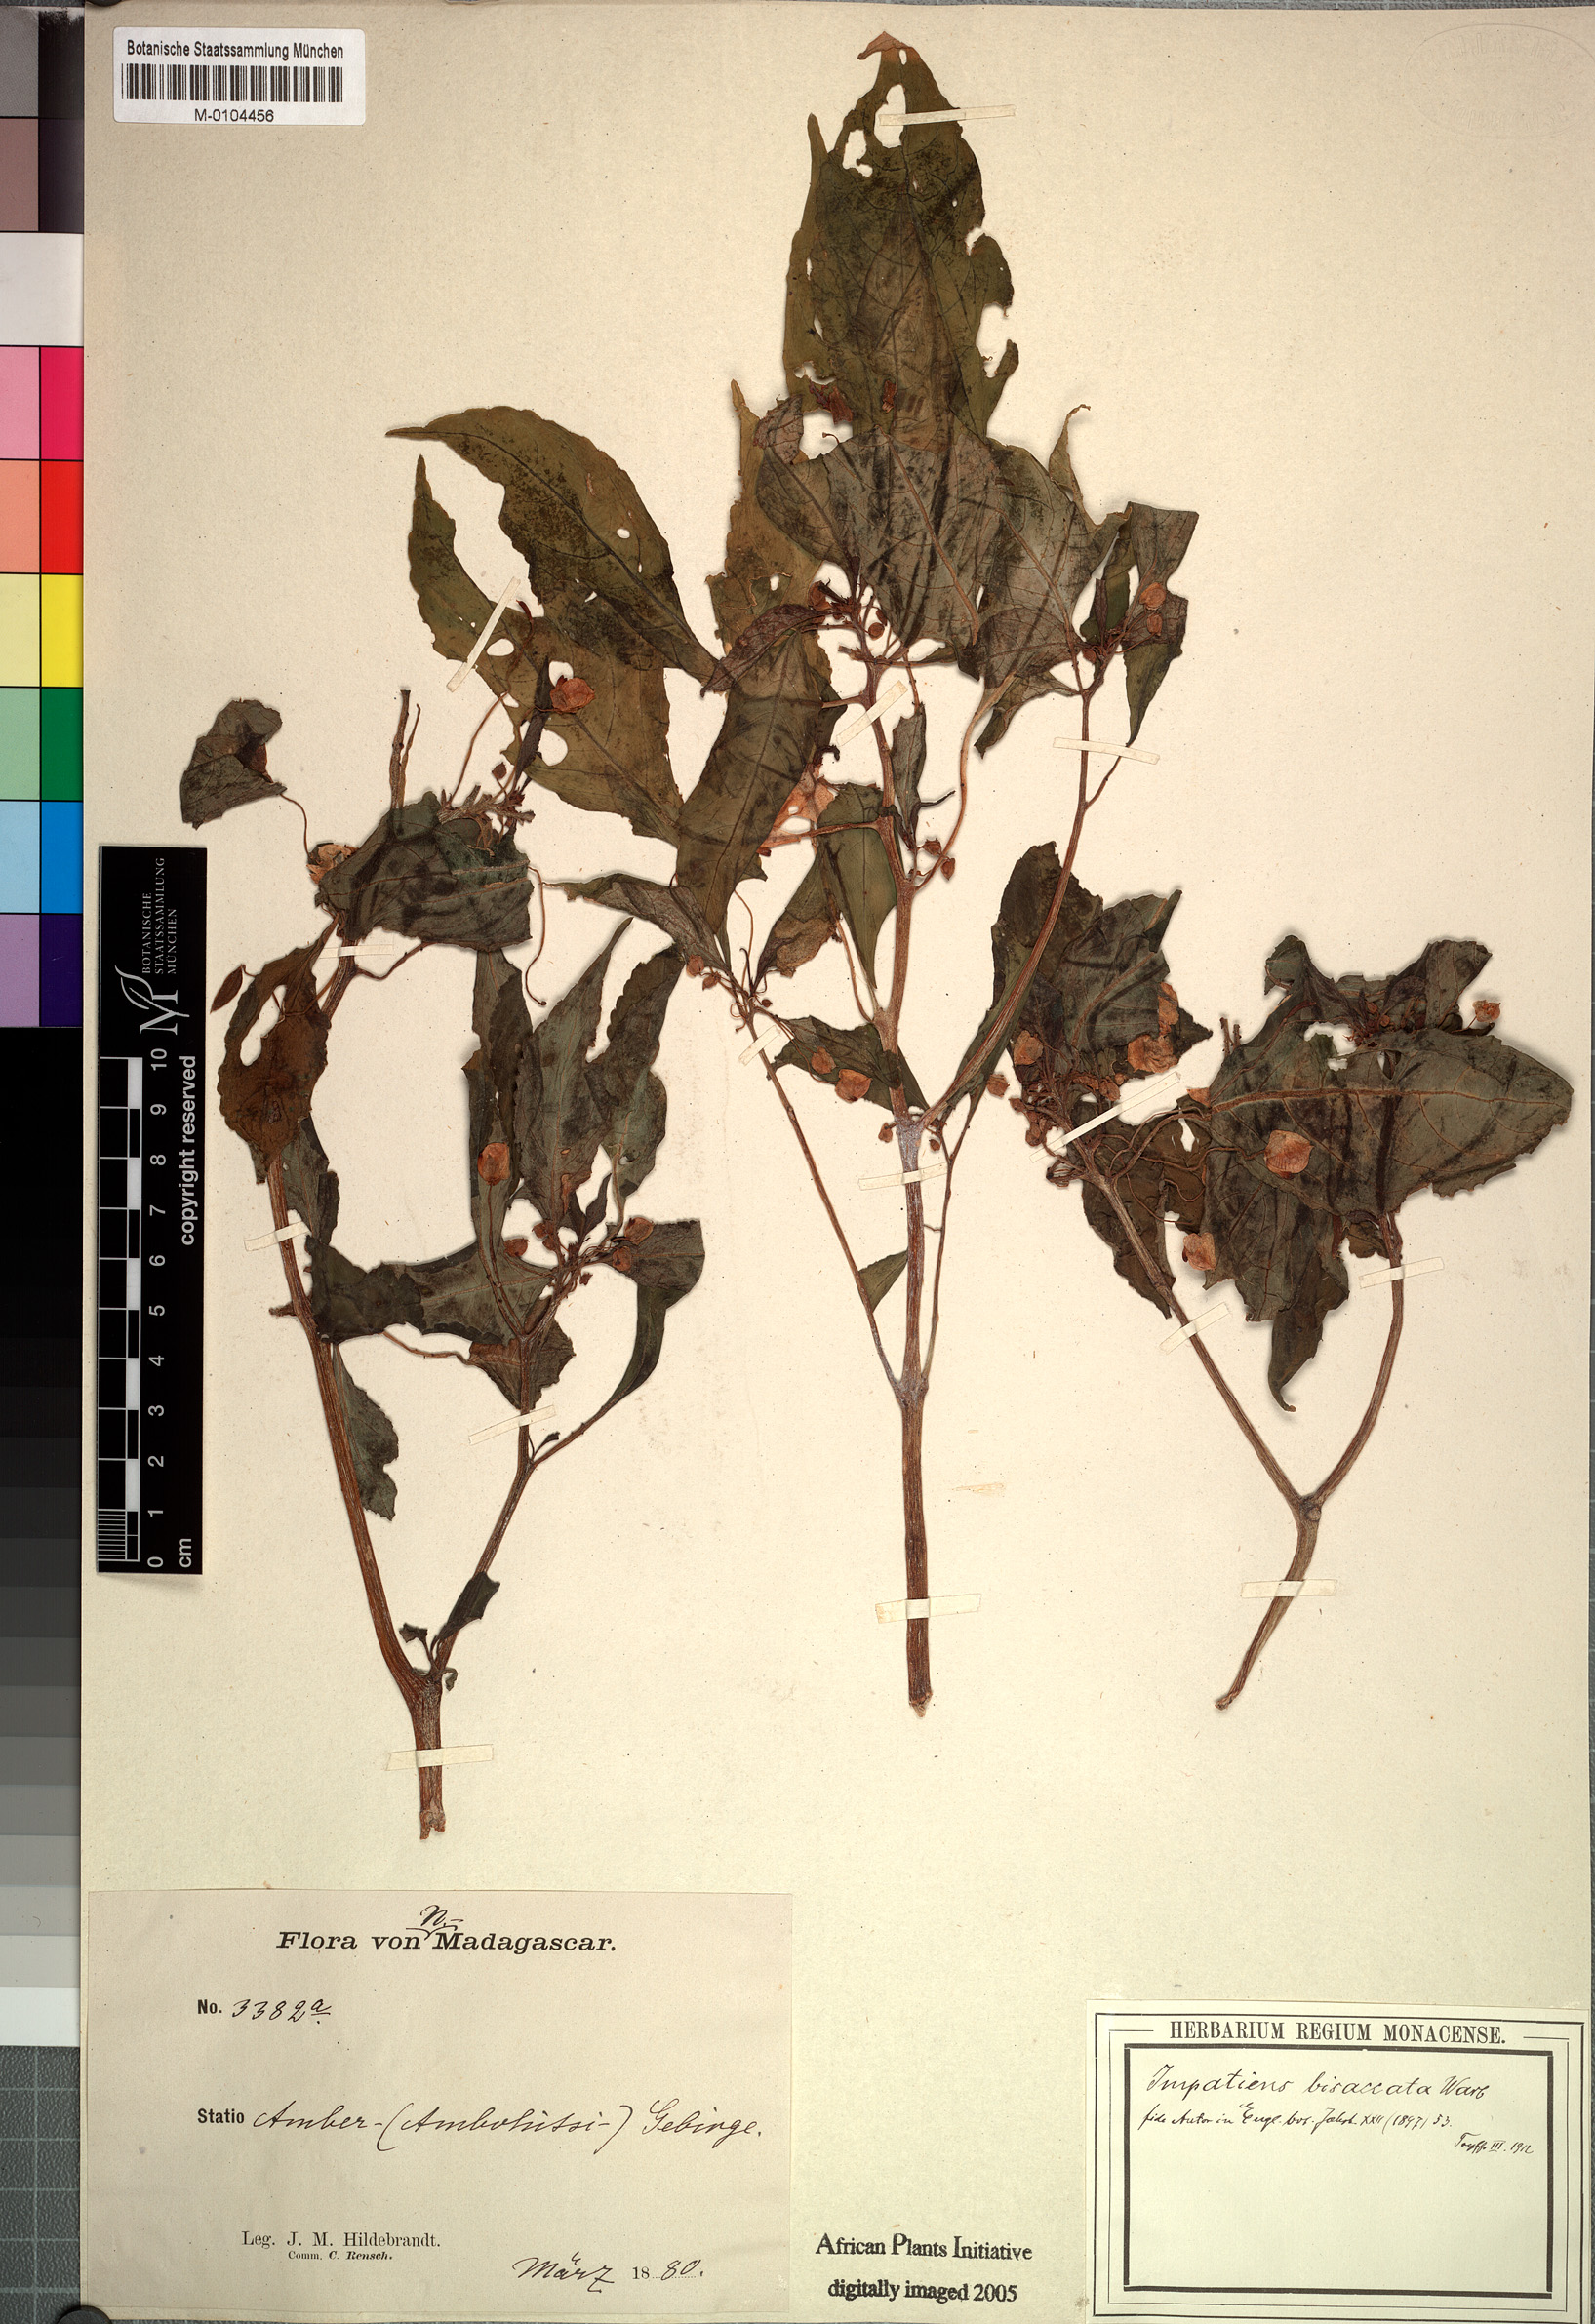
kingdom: Plantae
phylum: Tracheophyta
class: Magnoliopsida
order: Ericales
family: Balsaminaceae
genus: Impatiens
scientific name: Impatiens bisaccata
